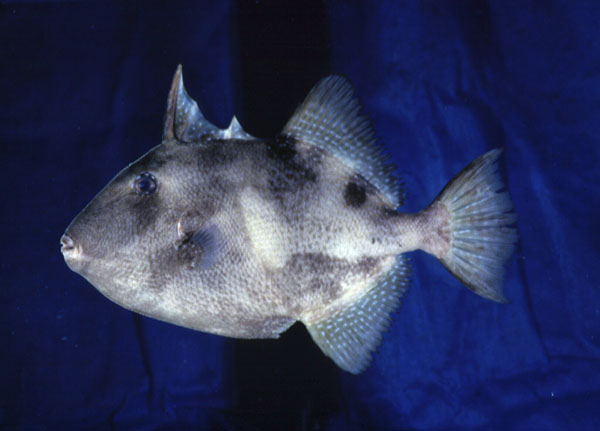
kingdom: Animalia
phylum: Chordata
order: Tetraodontiformes
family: Balistidae
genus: Balistes
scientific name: Balistes capriscus
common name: Grey triggerfish
